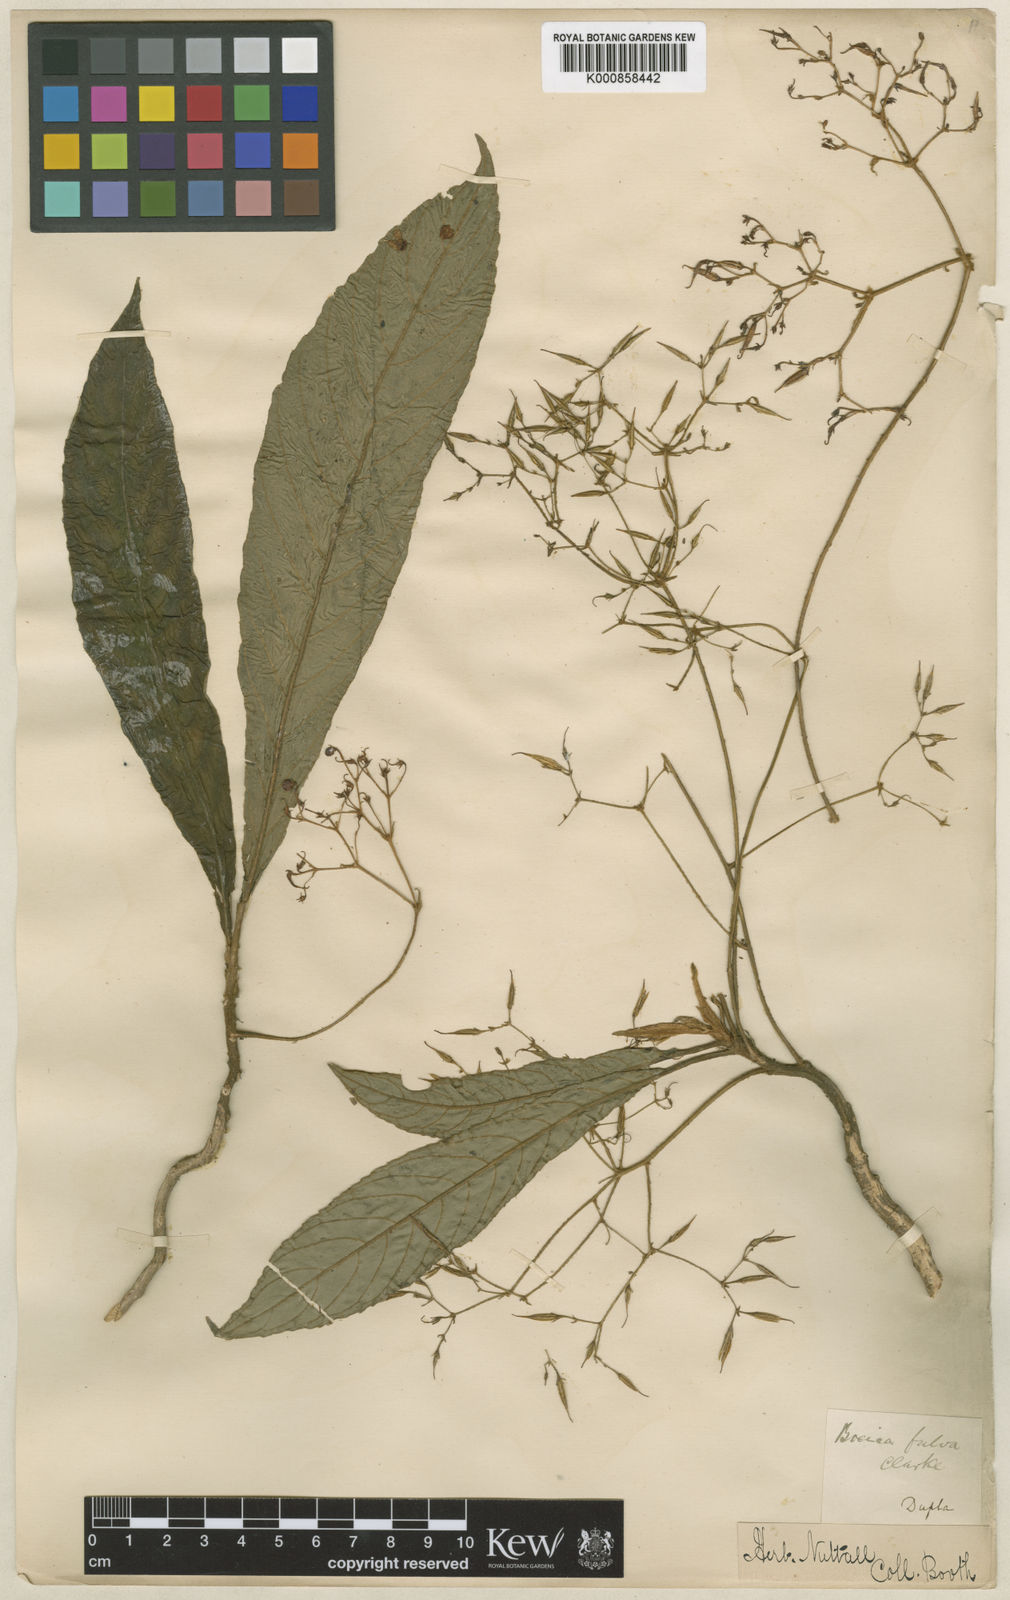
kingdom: Plantae
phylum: Tracheophyta
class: Magnoliopsida
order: Lamiales
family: Gesneriaceae
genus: Boeica
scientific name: Boeica fulva
